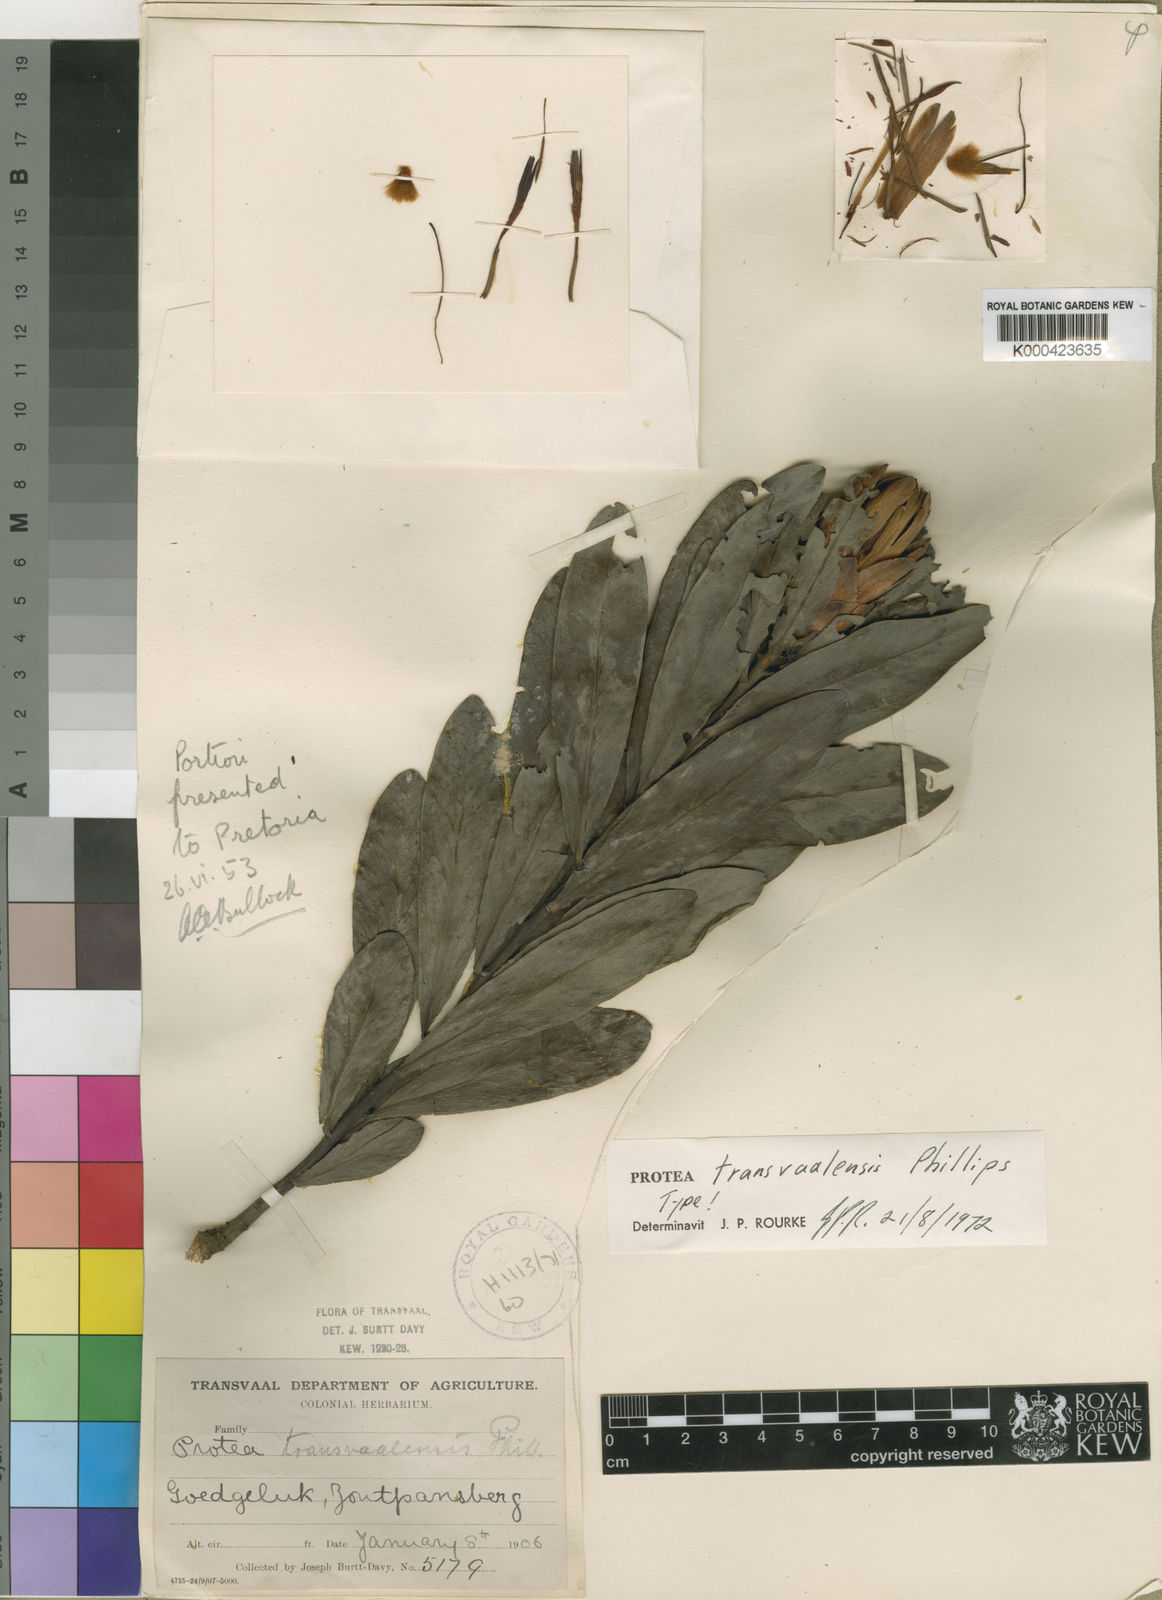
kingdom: Plantae
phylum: Tracheophyta
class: Magnoliopsida
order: Proteales
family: Proteaceae
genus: Protea
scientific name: Protea simplex
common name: Dwarf grassveld sugarbush
